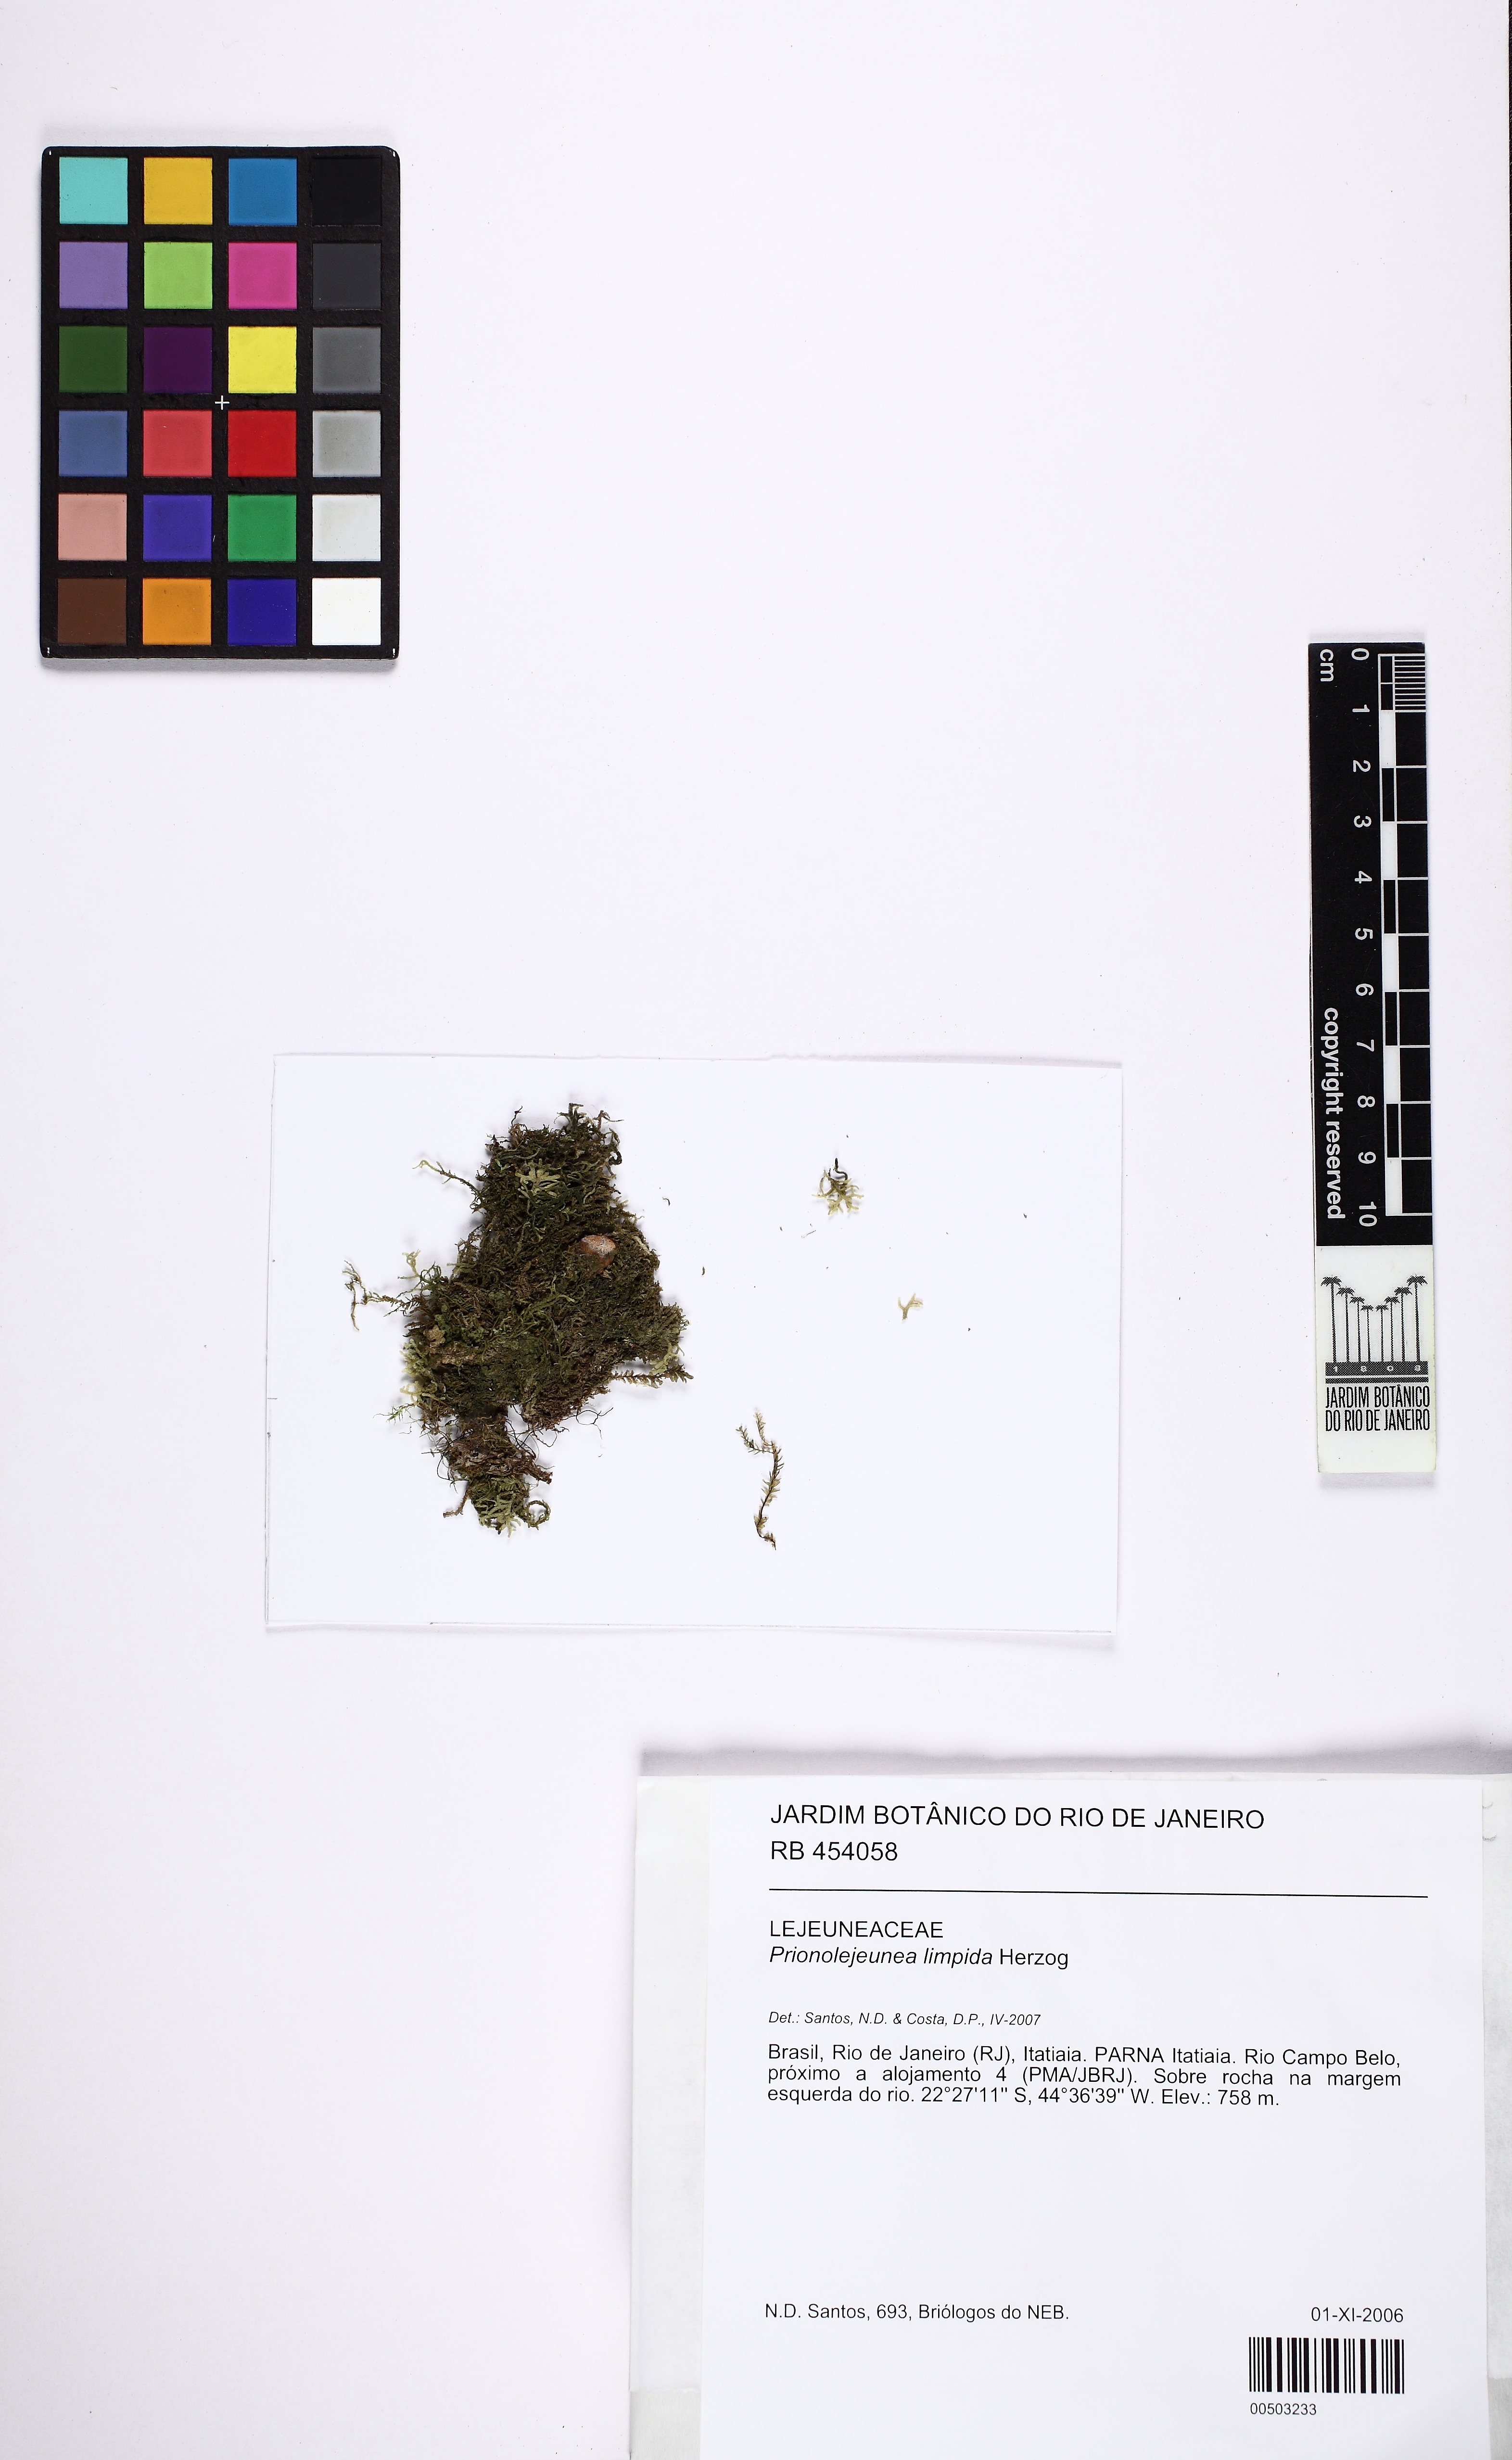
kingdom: Plantae
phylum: Marchantiophyta
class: Jungermanniopsida
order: Porellales
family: Lejeuneaceae
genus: Prionolejeunea
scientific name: Prionolejeunea limpida
